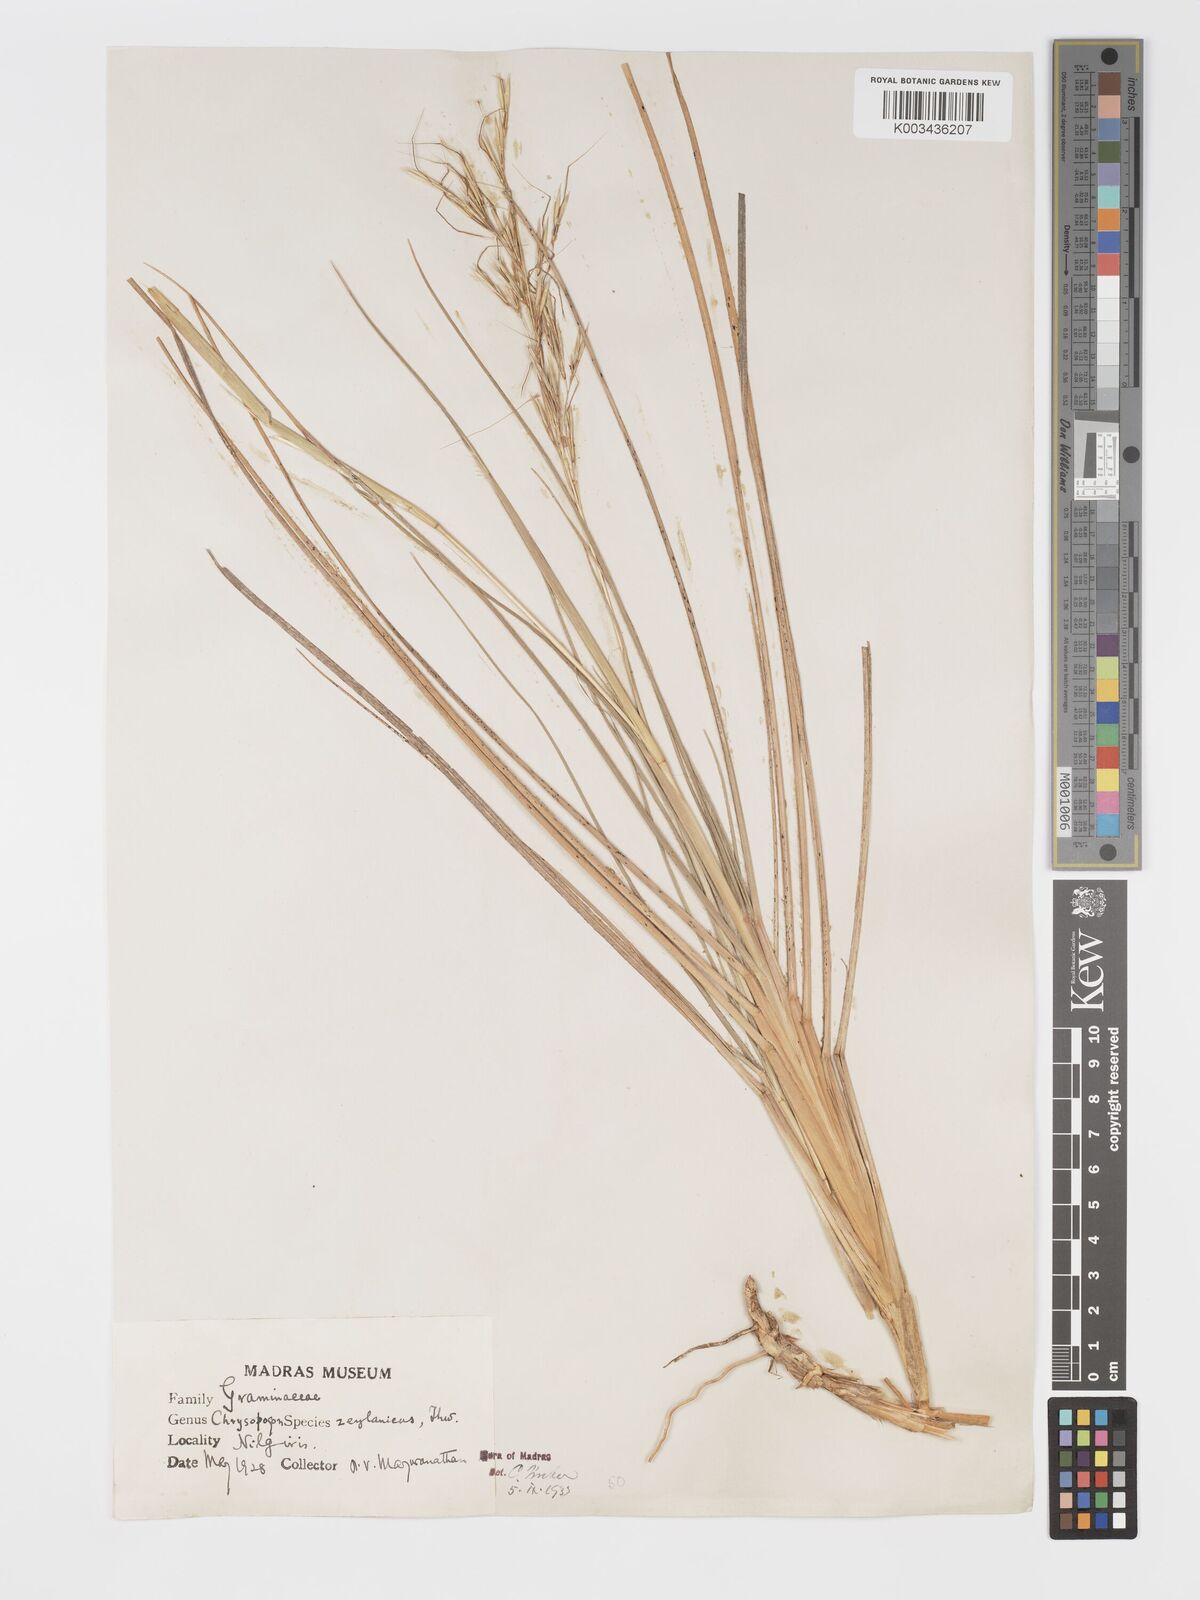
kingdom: Plantae
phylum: Tracheophyta
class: Liliopsida
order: Poales
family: Poaceae
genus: Chrysopogon
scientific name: Chrysopogon nodulibarbis
